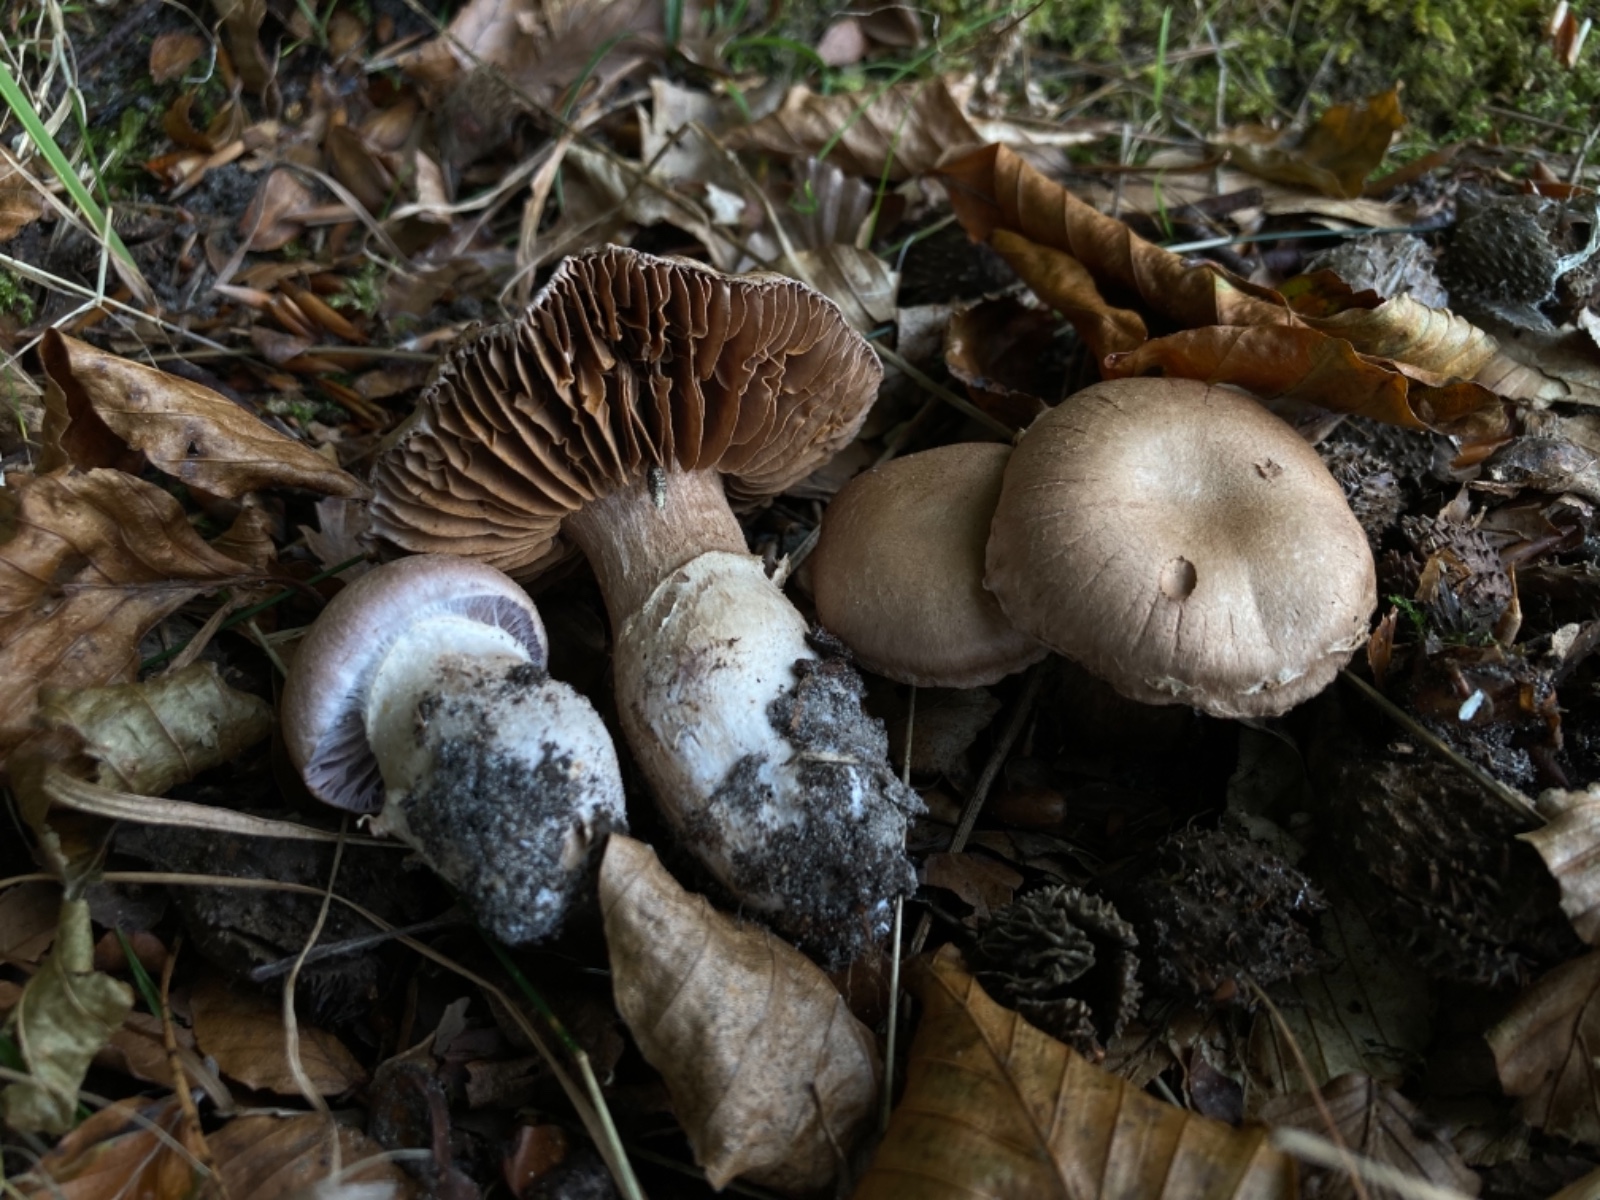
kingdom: Fungi
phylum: Basidiomycota
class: Agaricomycetes
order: Agaricales
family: Cortinariaceae
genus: Cortinarius
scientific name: Cortinarius torvus
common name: champignonagtig slørhat
